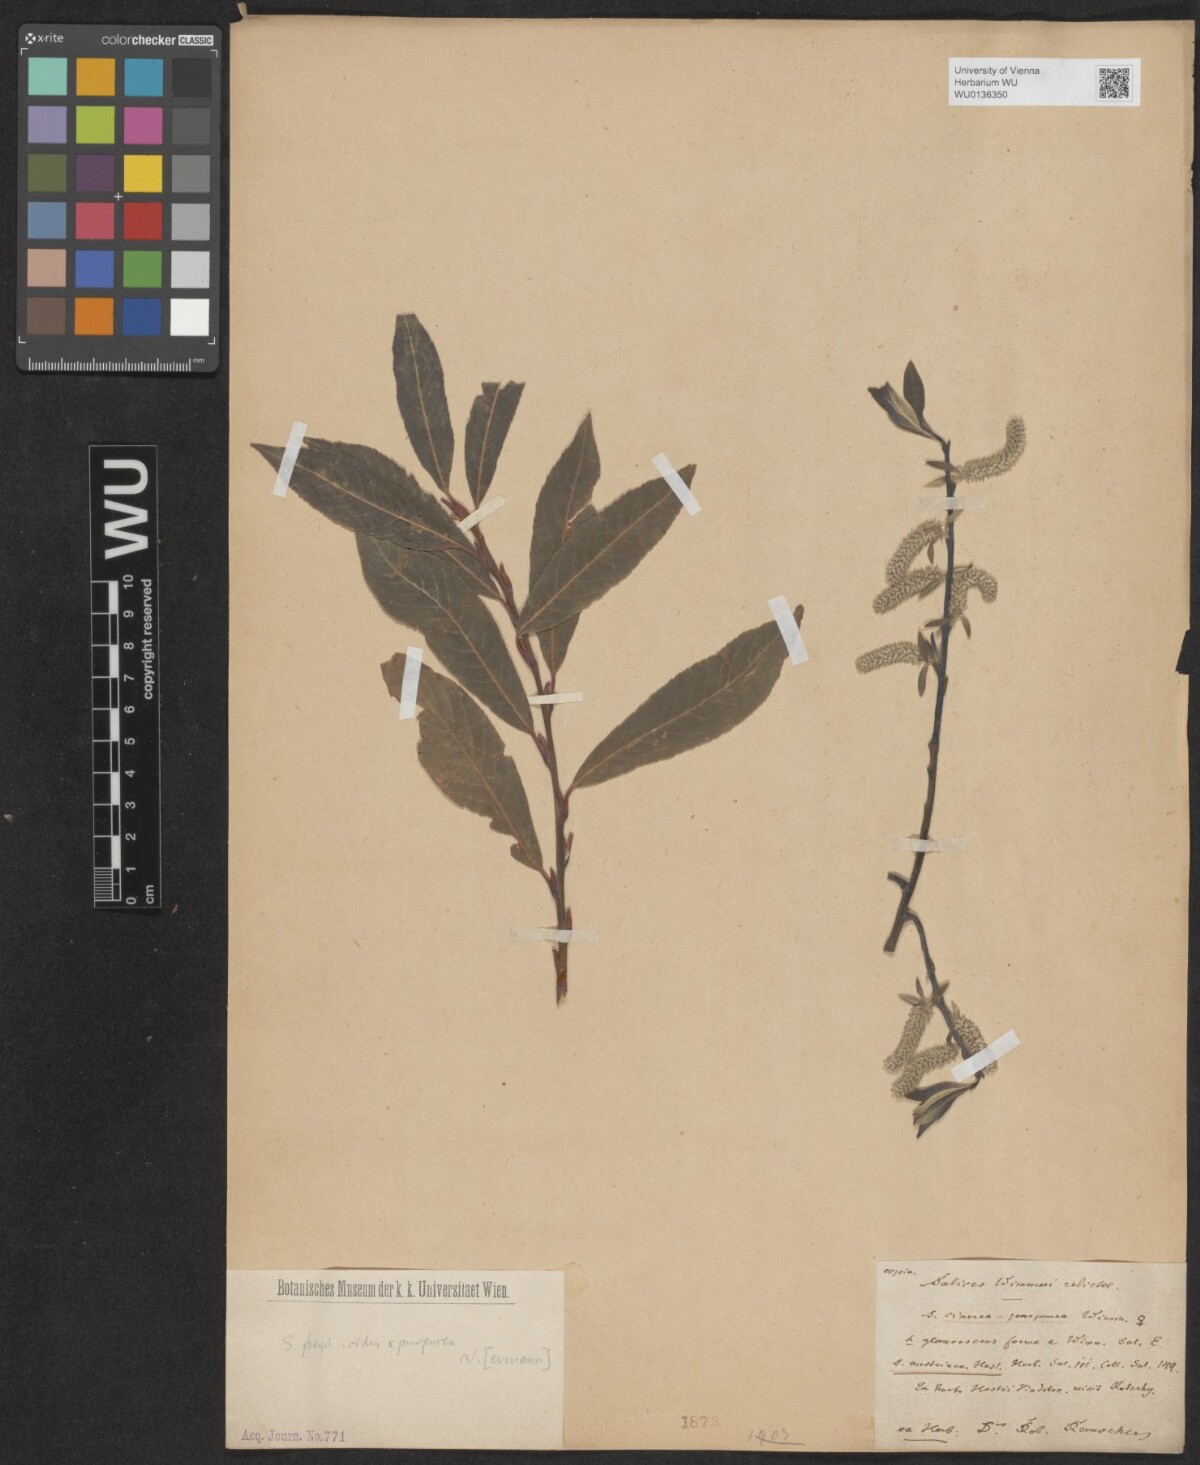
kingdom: Plantae
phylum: Tracheophyta
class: Magnoliopsida
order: Malpighiales
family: Salicaceae
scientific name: Salicaceae
